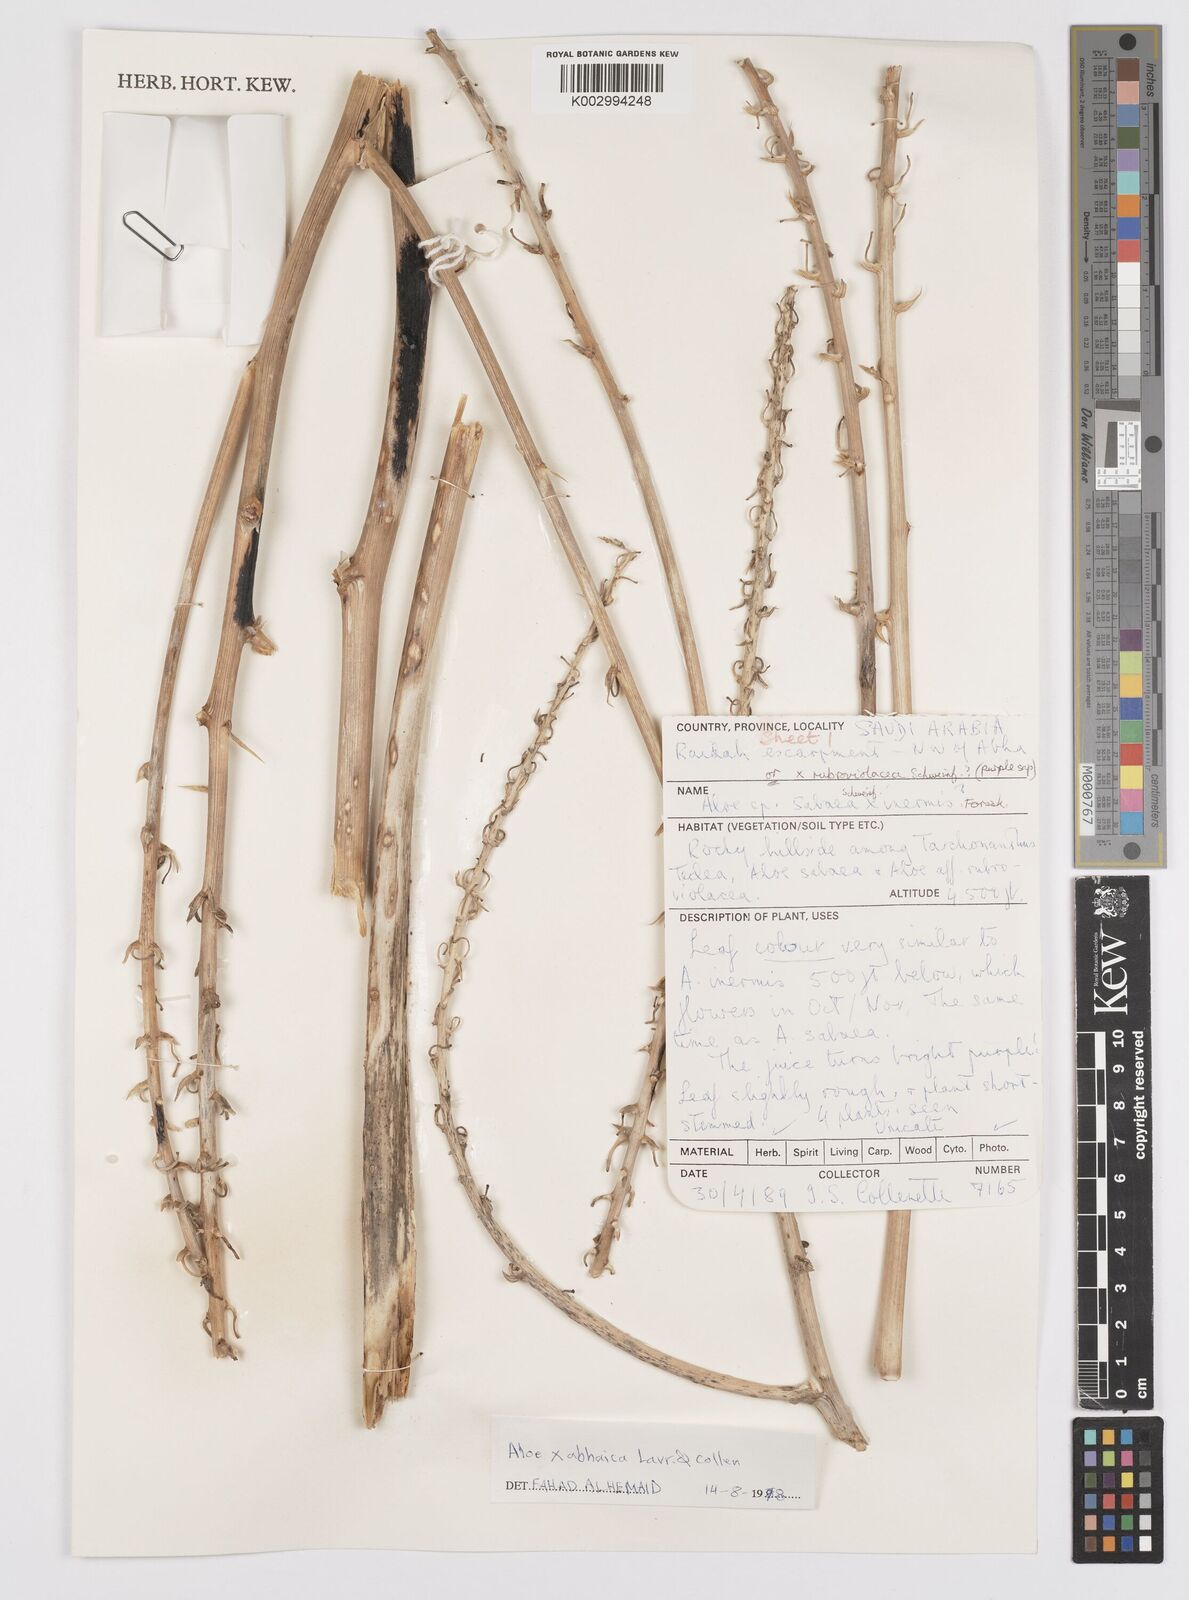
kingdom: Plantae
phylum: Tracheophyta
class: Liliopsida
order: Asparagales
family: Asphodelaceae
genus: Aloe
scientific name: Aloe
